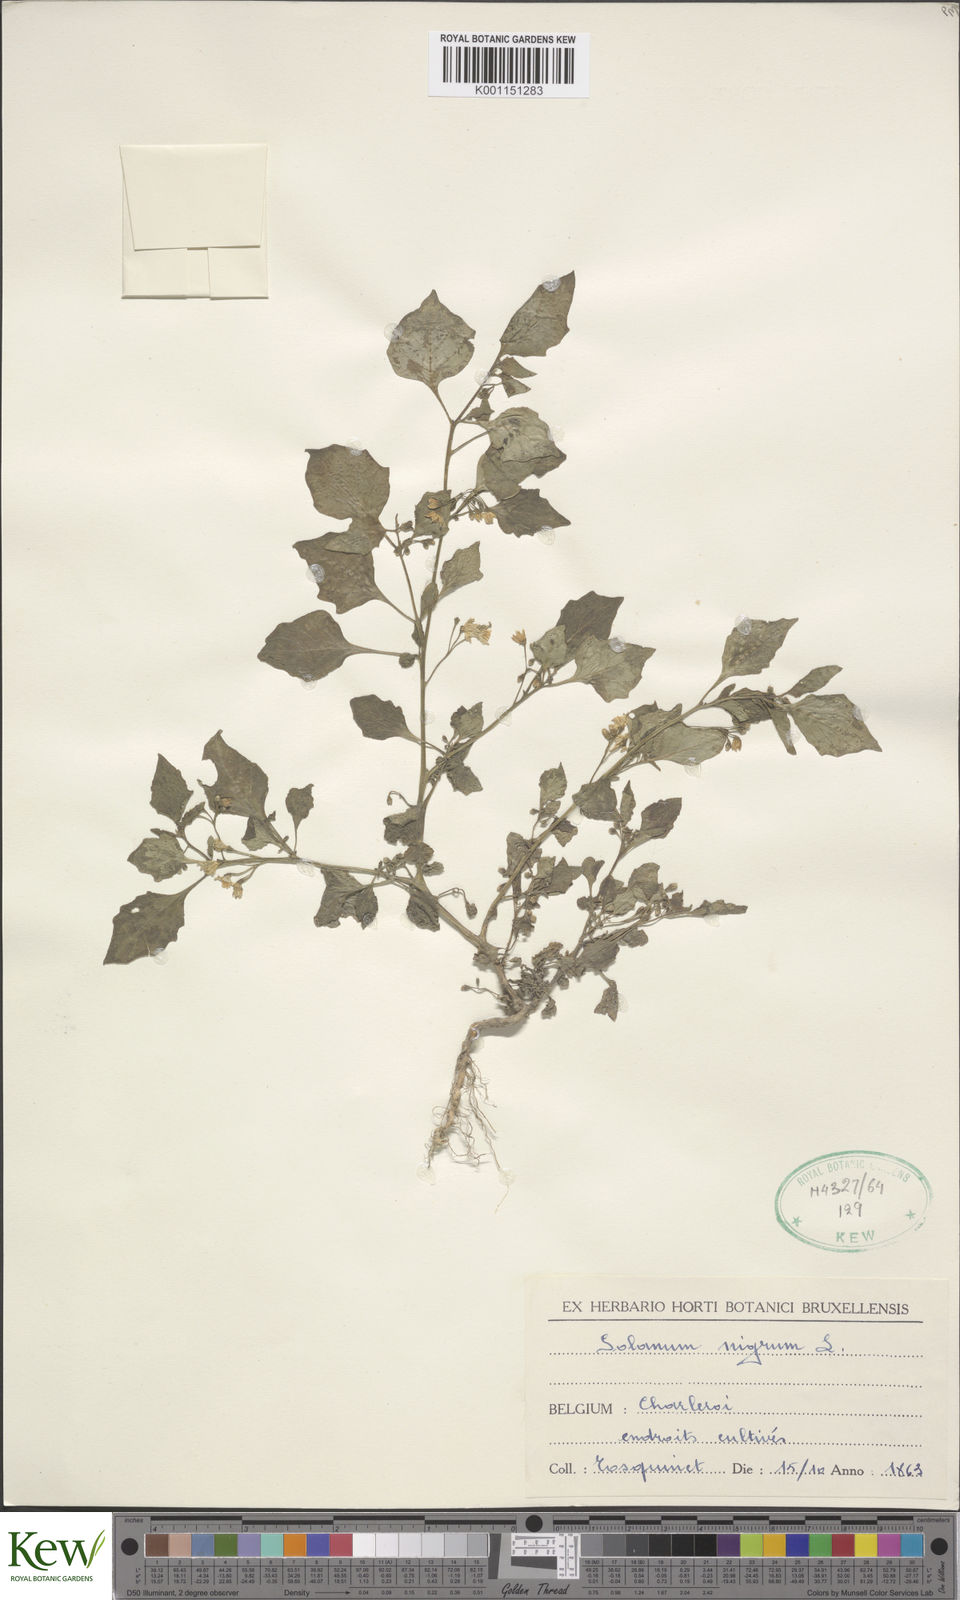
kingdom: Plantae
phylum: Tracheophyta
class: Magnoliopsida
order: Solanales
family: Solanaceae
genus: Solanum
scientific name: Solanum nigrum
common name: Black nightshade
